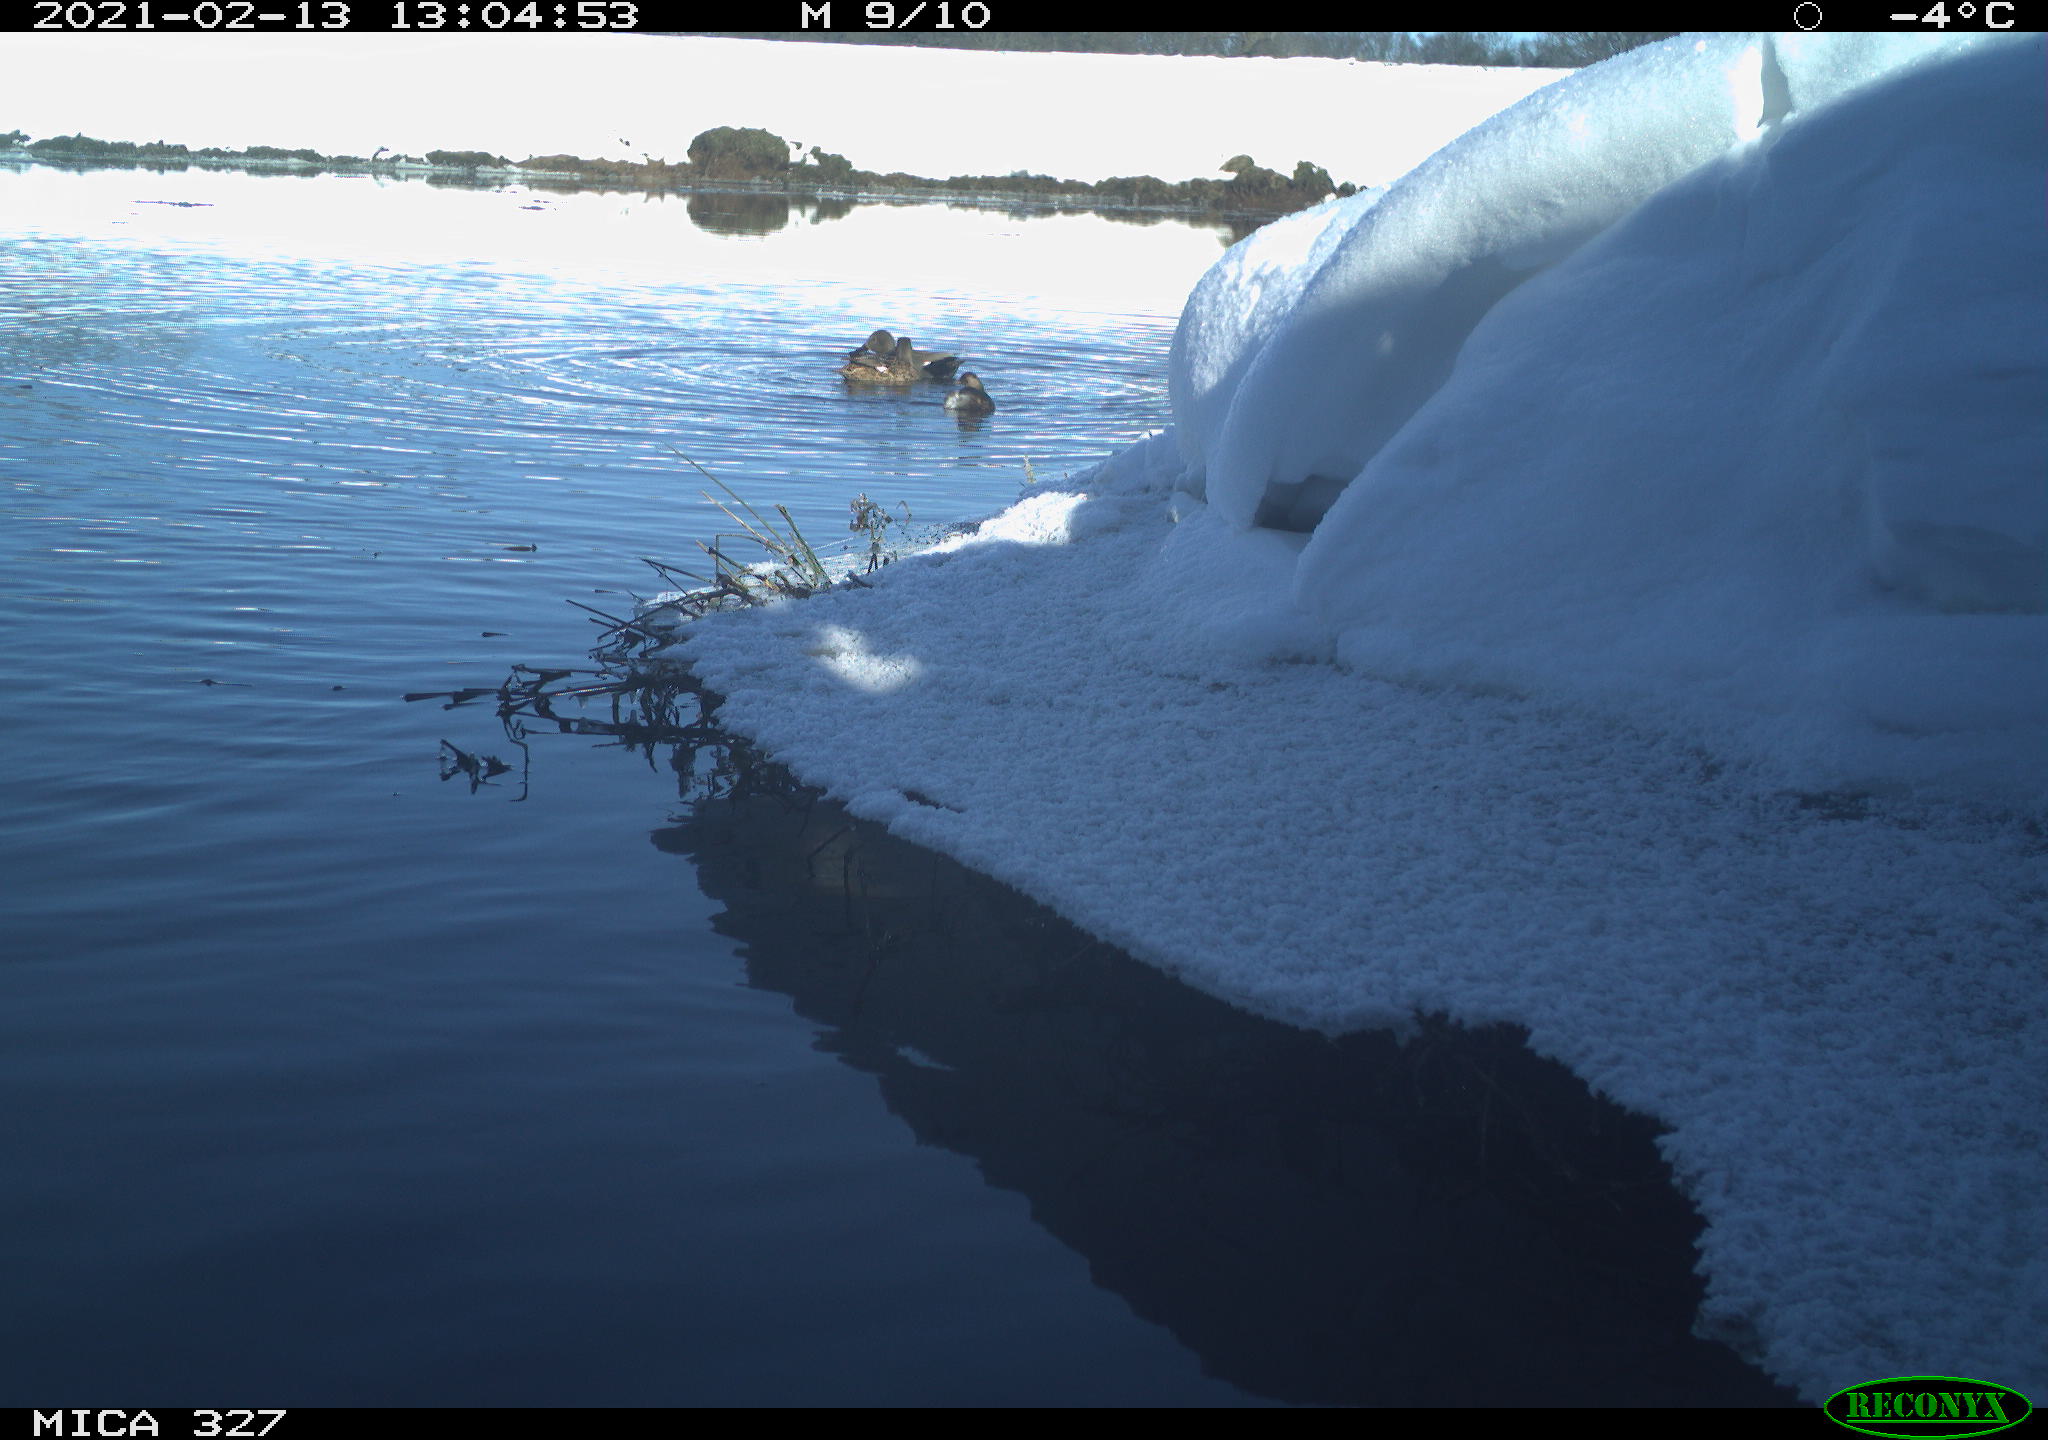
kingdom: Animalia
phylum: Chordata
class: Aves
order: Anseriformes
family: Anatidae
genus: Anas
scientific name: Anas
